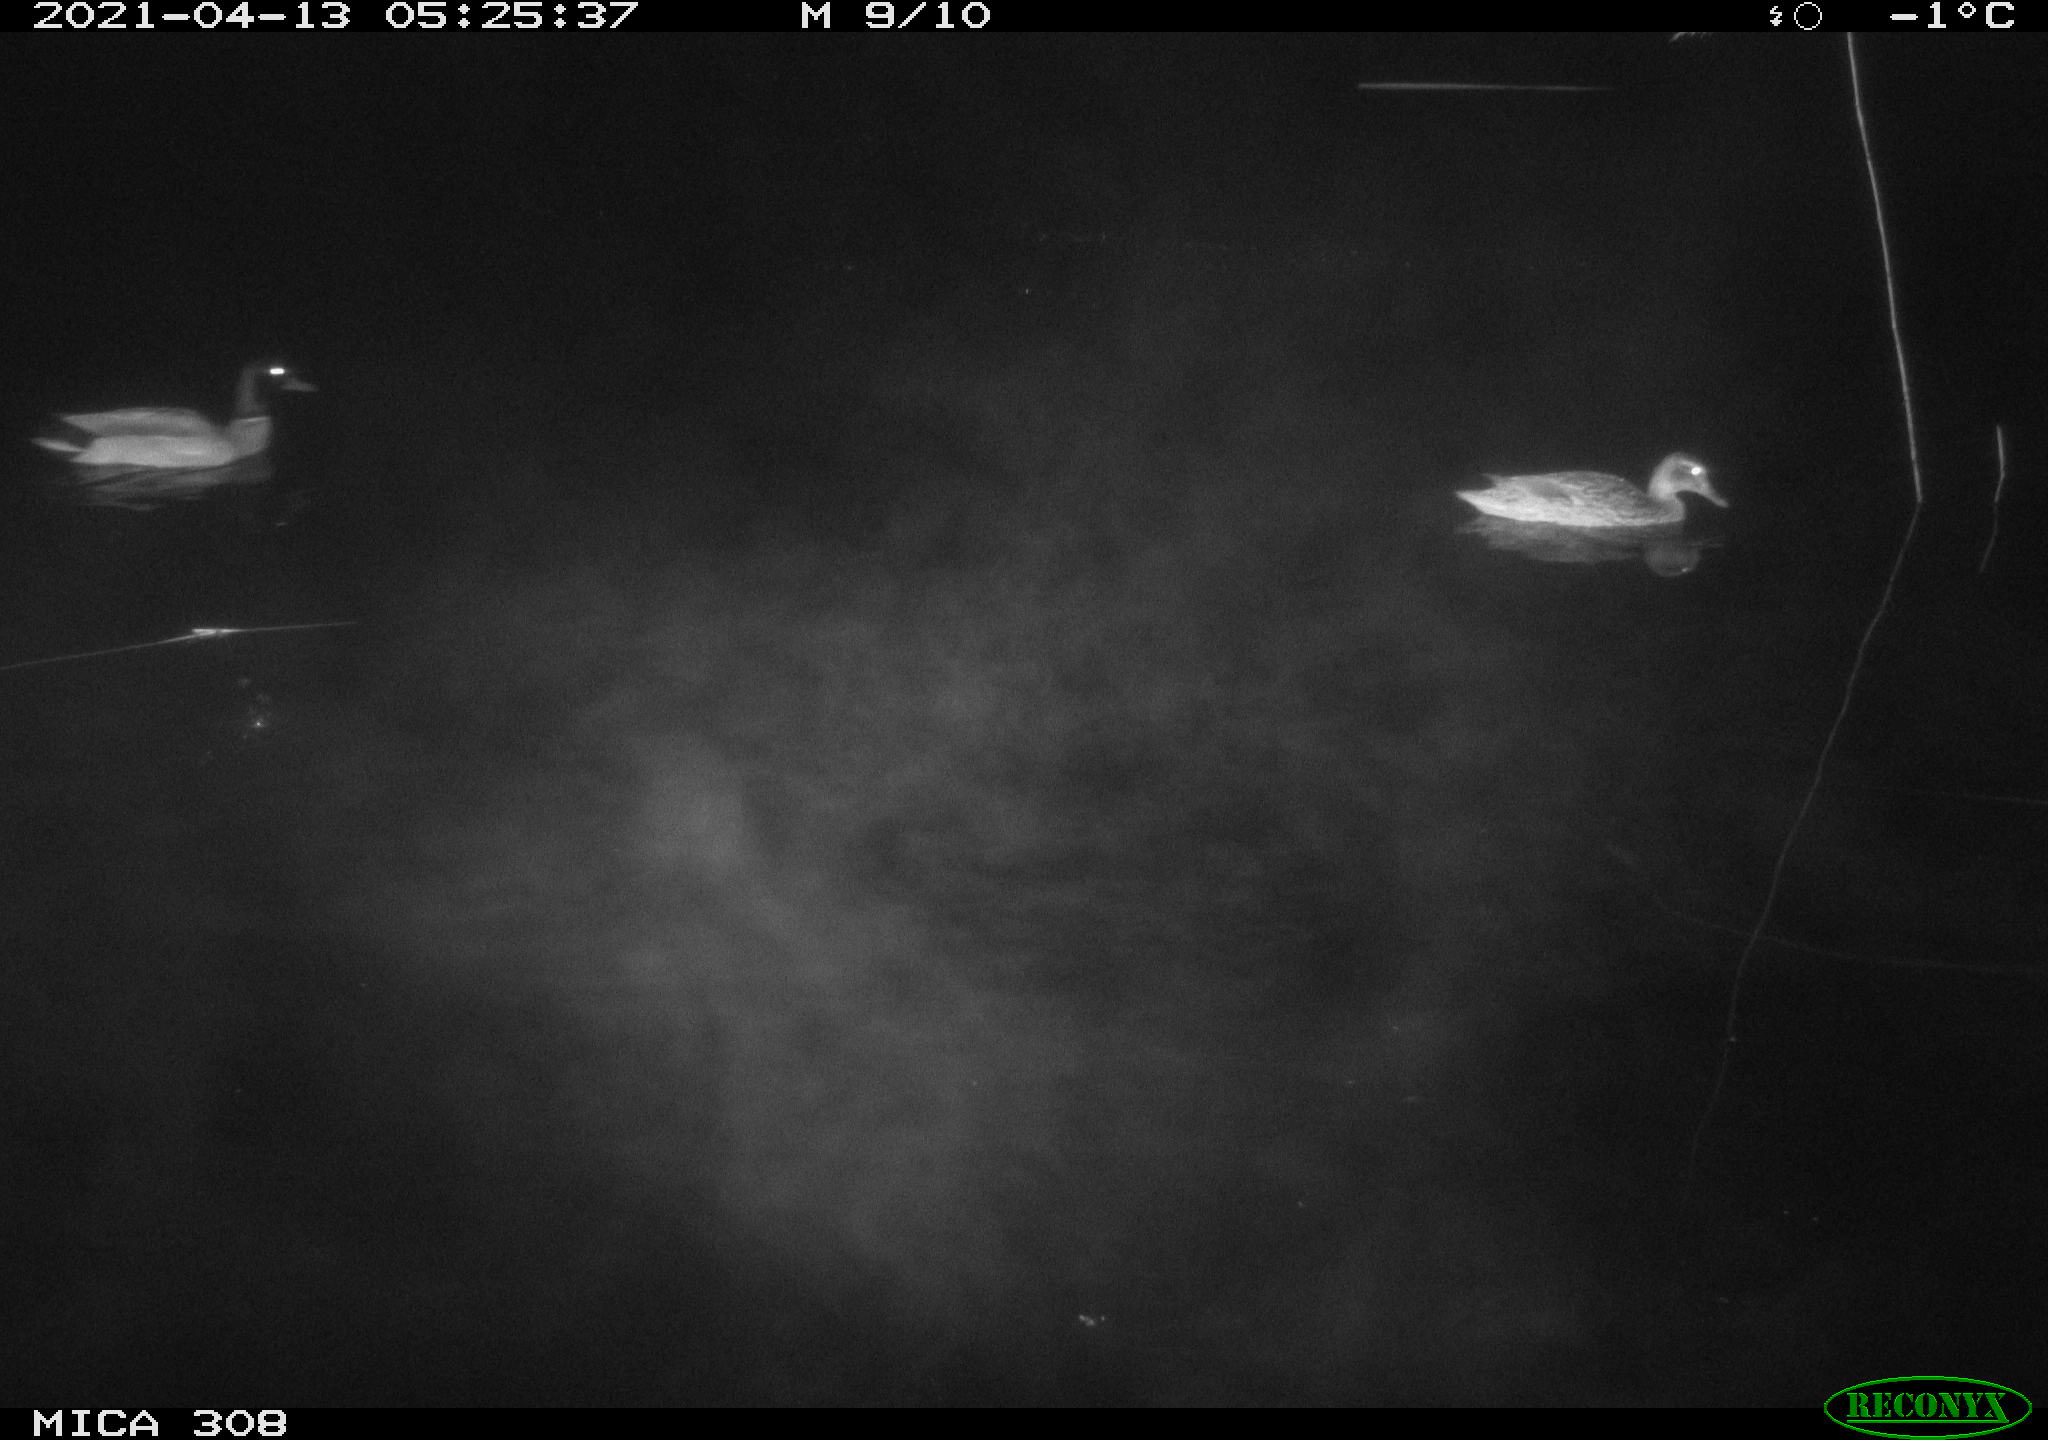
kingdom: Animalia
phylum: Chordata
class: Aves
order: Anseriformes
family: Anatidae
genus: Anas
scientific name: Anas platyrhynchos
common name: Mallard
